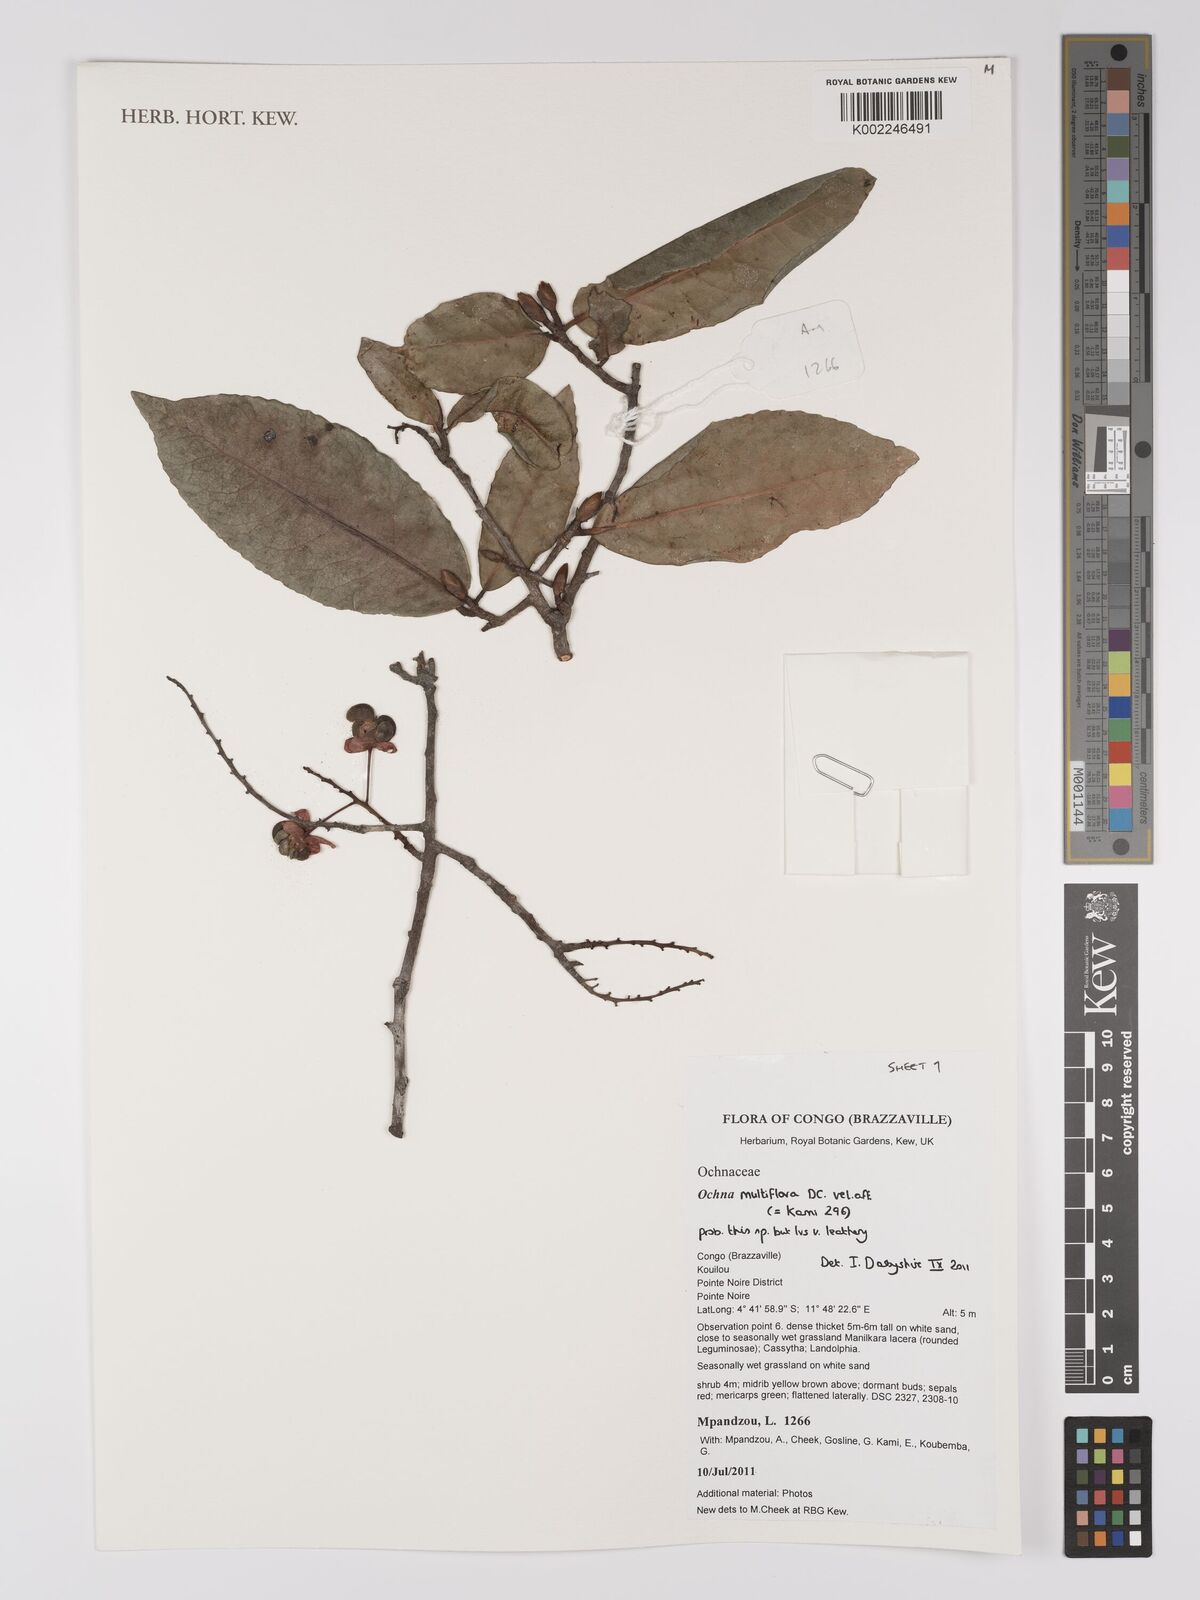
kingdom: Plantae
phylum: Tracheophyta
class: Magnoliopsida
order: Malpighiales
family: Ochnaceae
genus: Ochna
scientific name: Ochna multiflora
